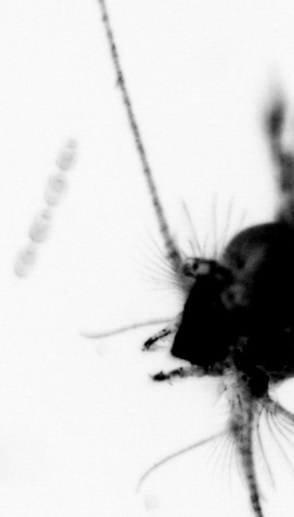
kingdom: Animalia
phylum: Arthropoda
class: Copepoda
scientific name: Copepoda
